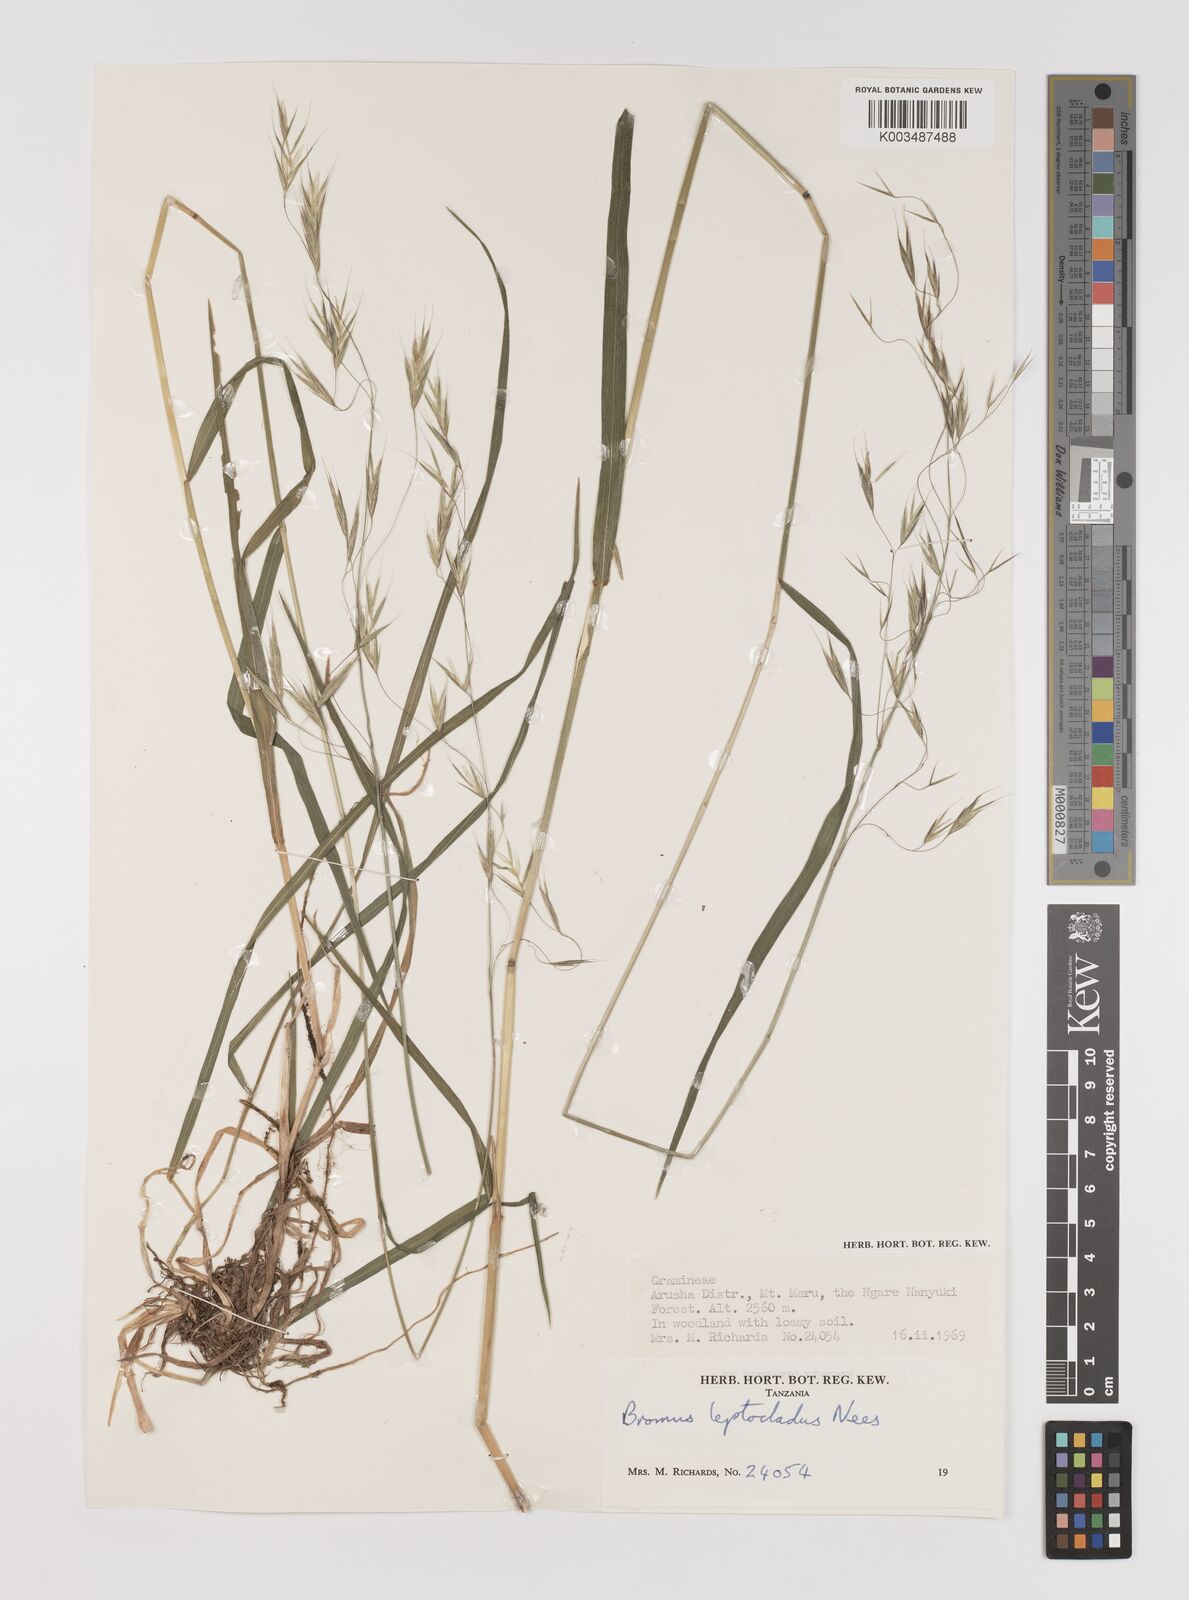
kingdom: Plantae
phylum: Tracheophyta
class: Liliopsida
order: Poales
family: Poaceae
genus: Bromus
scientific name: Bromus leptoclados
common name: Mountain bromegrass
